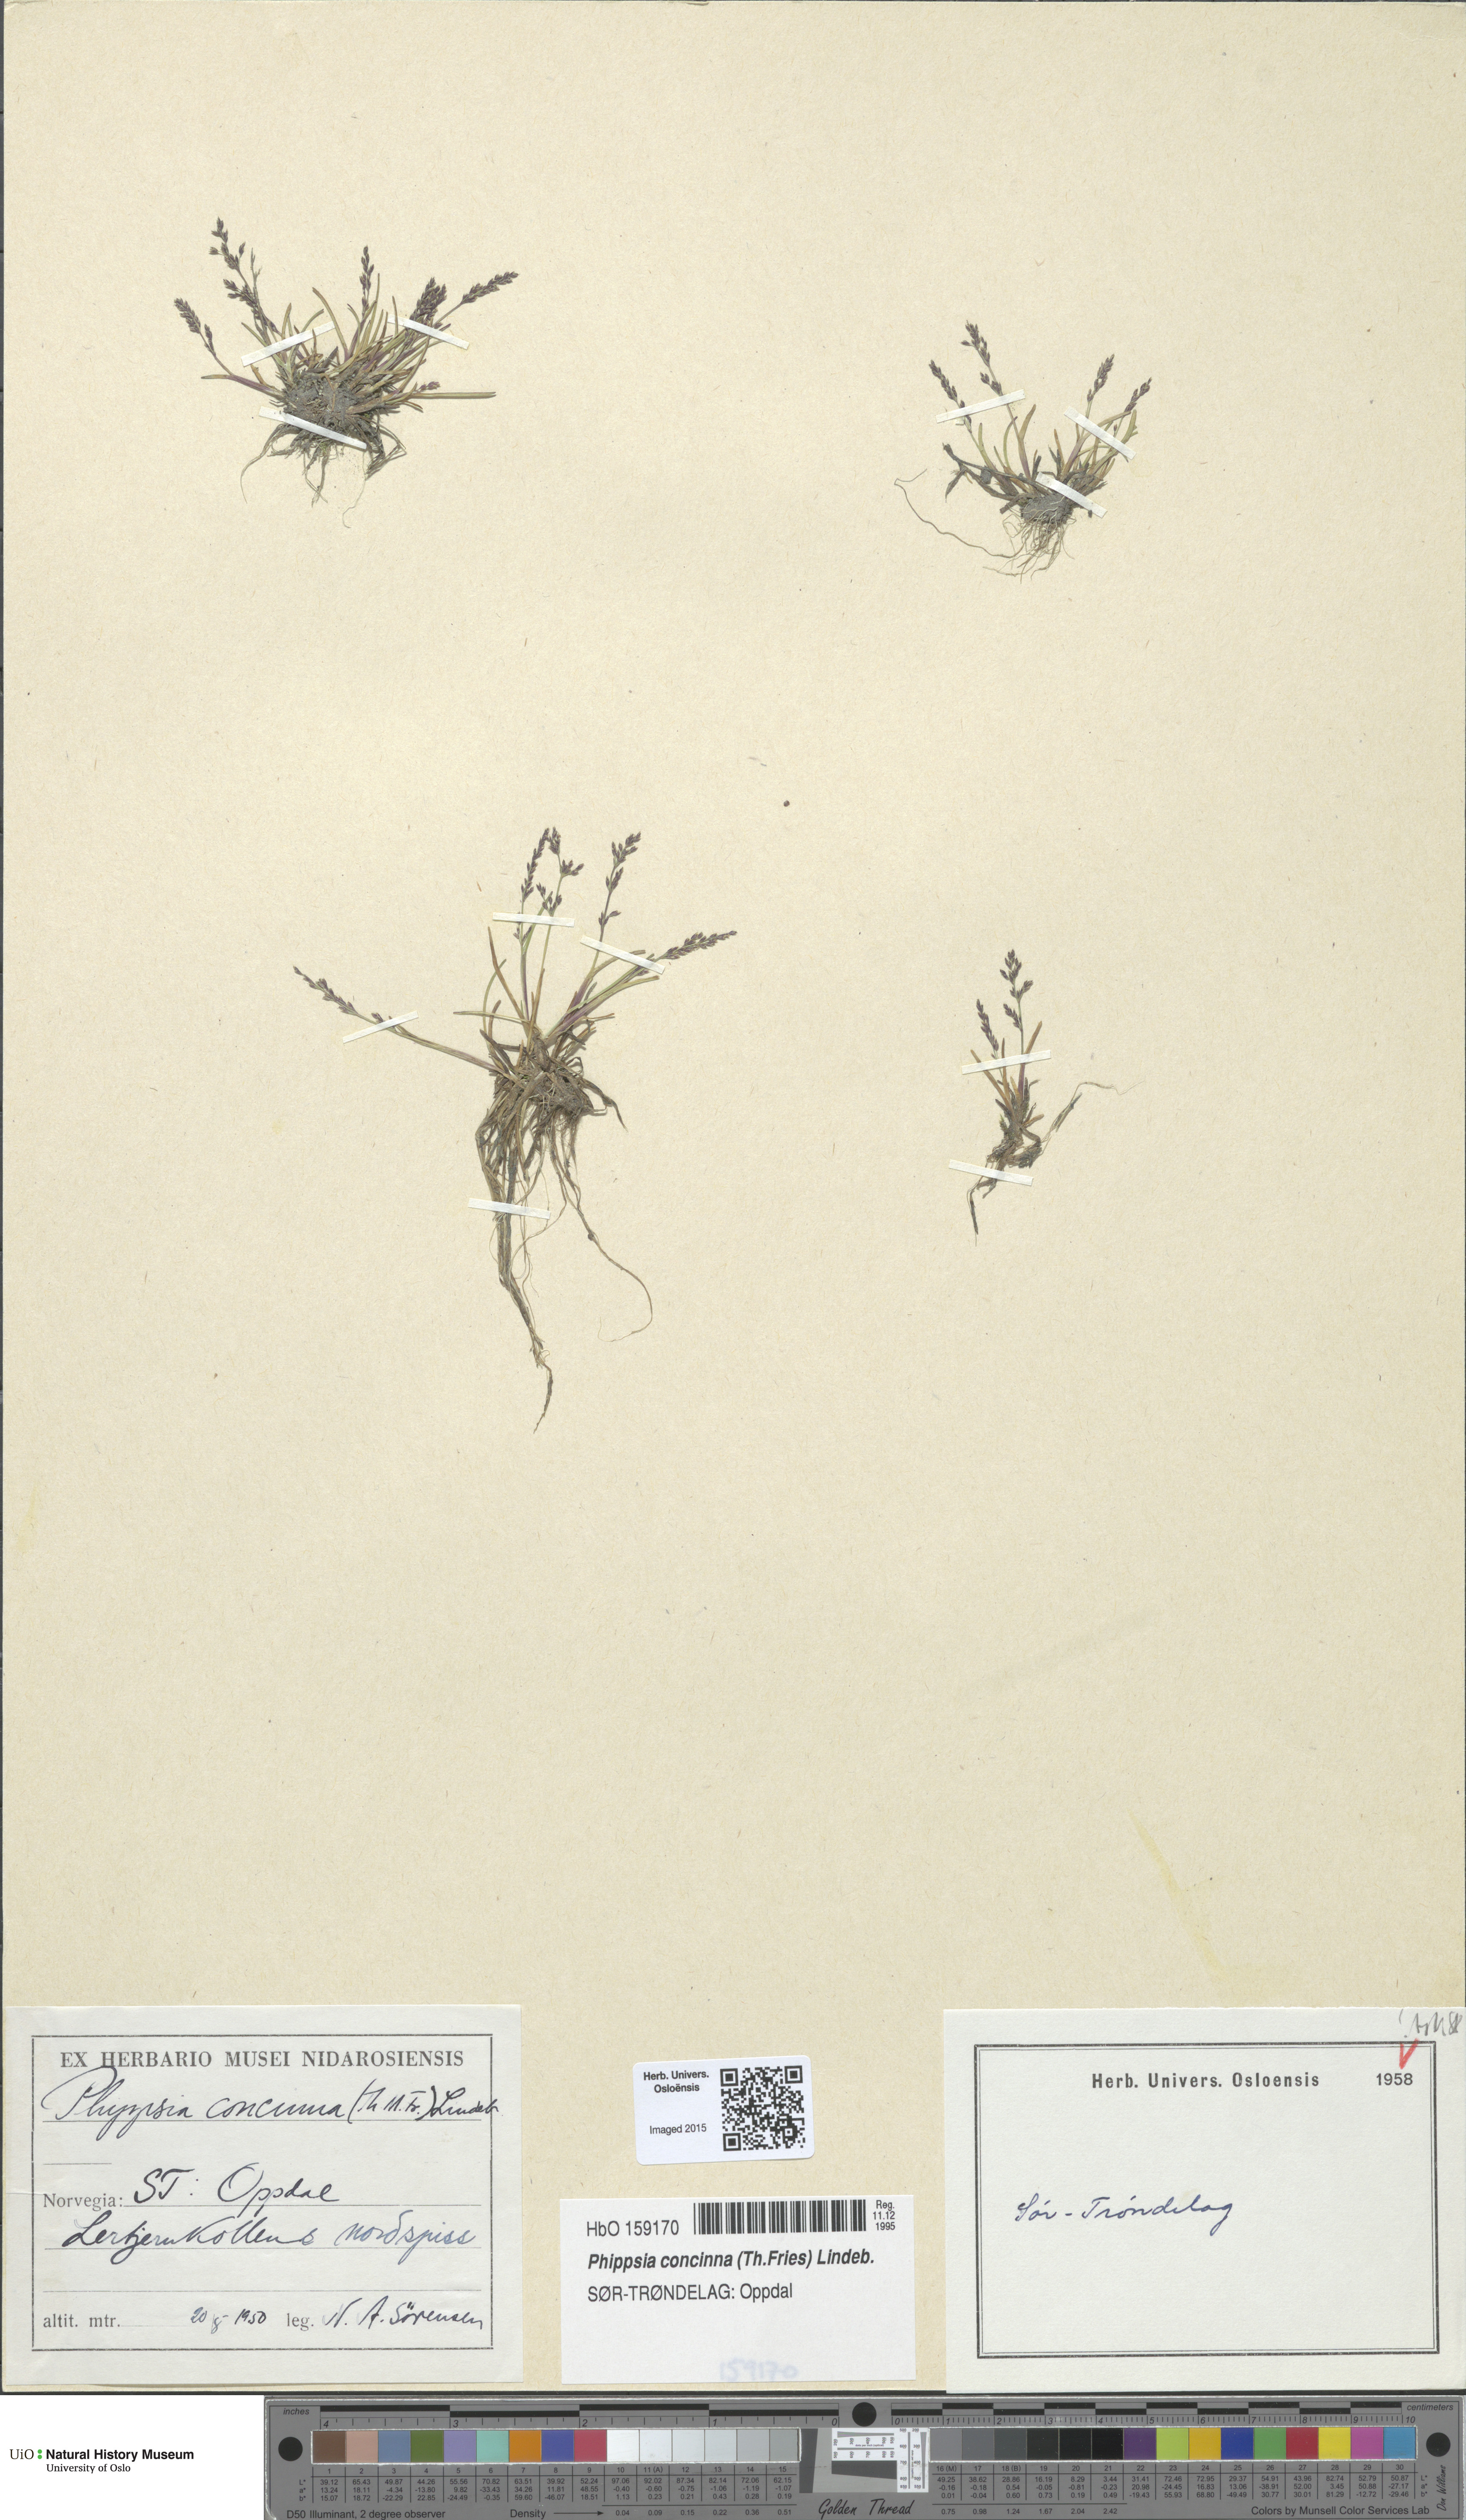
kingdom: Plantae
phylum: Tracheophyta
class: Liliopsida
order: Poales
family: Poaceae
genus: Phippsia
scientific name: Phippsia concinna
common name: Snowgrass
